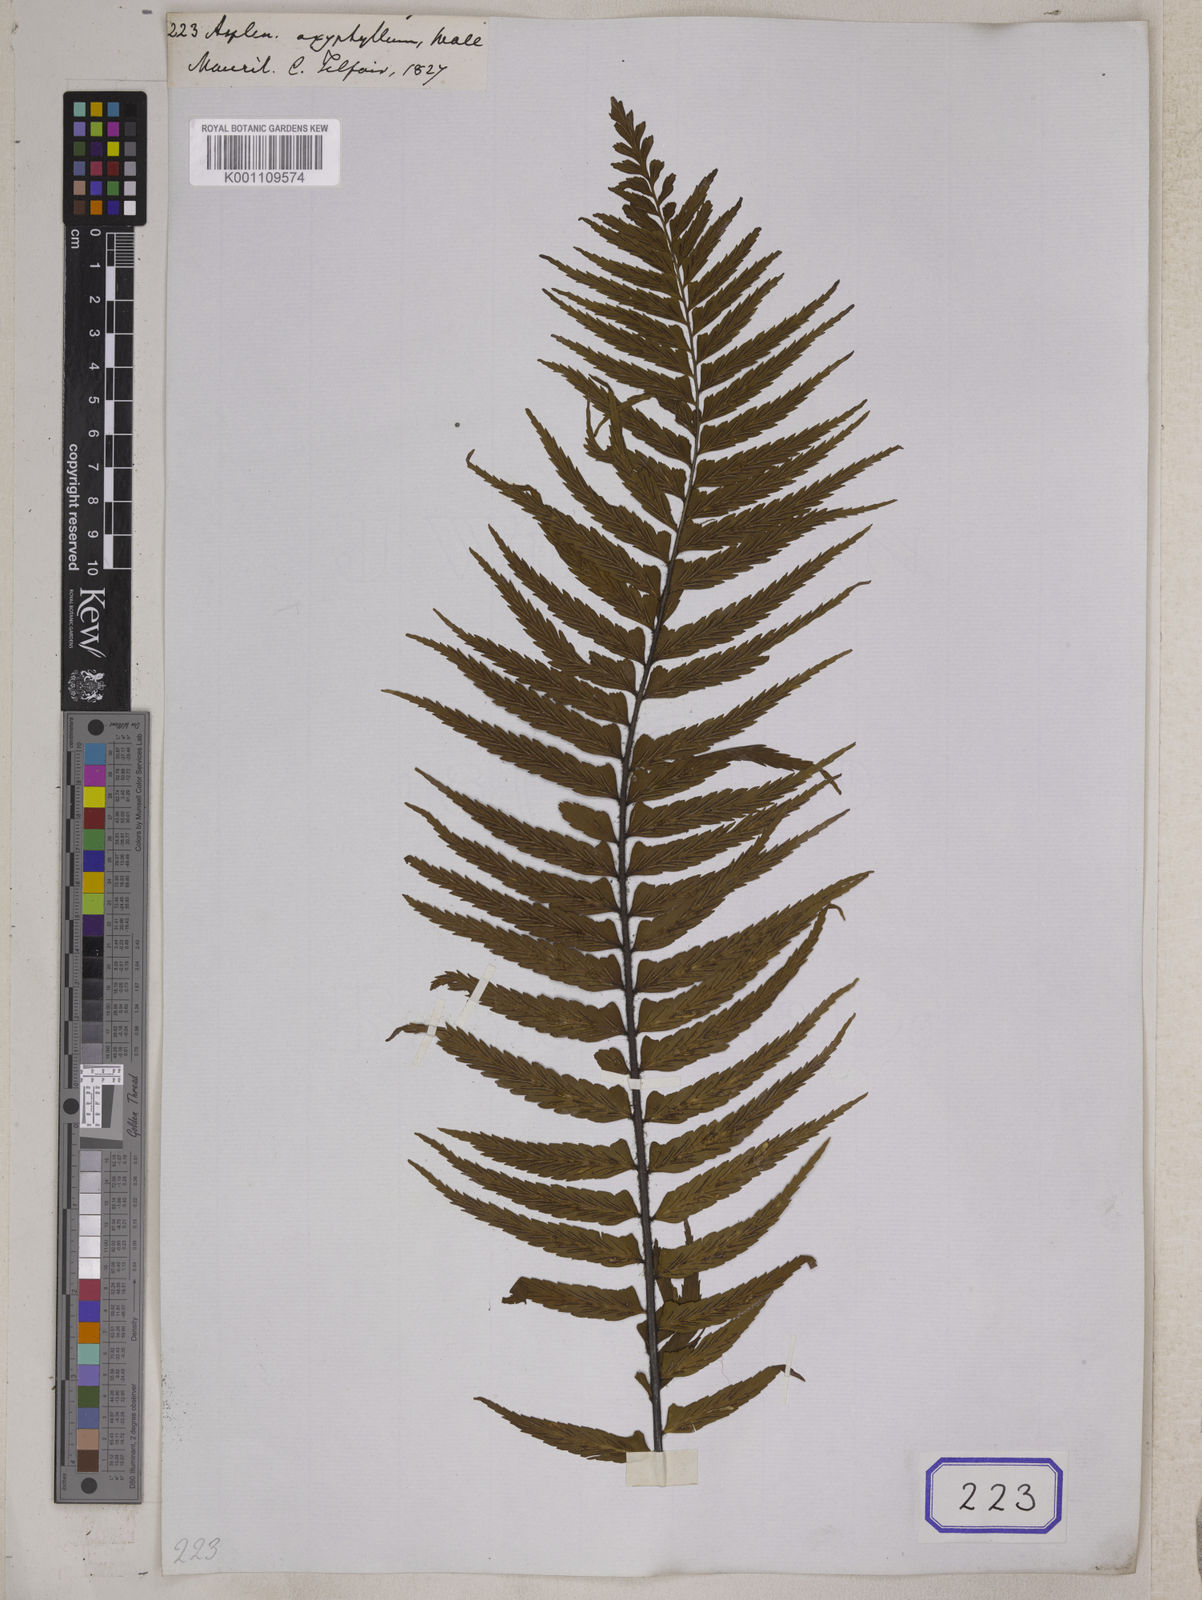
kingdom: Plantae
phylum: Tracheophyta
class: Polypodiopsida
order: Polypodiales
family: Aspleniaceae
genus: Asplenium
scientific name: Asplenium pellucidum
